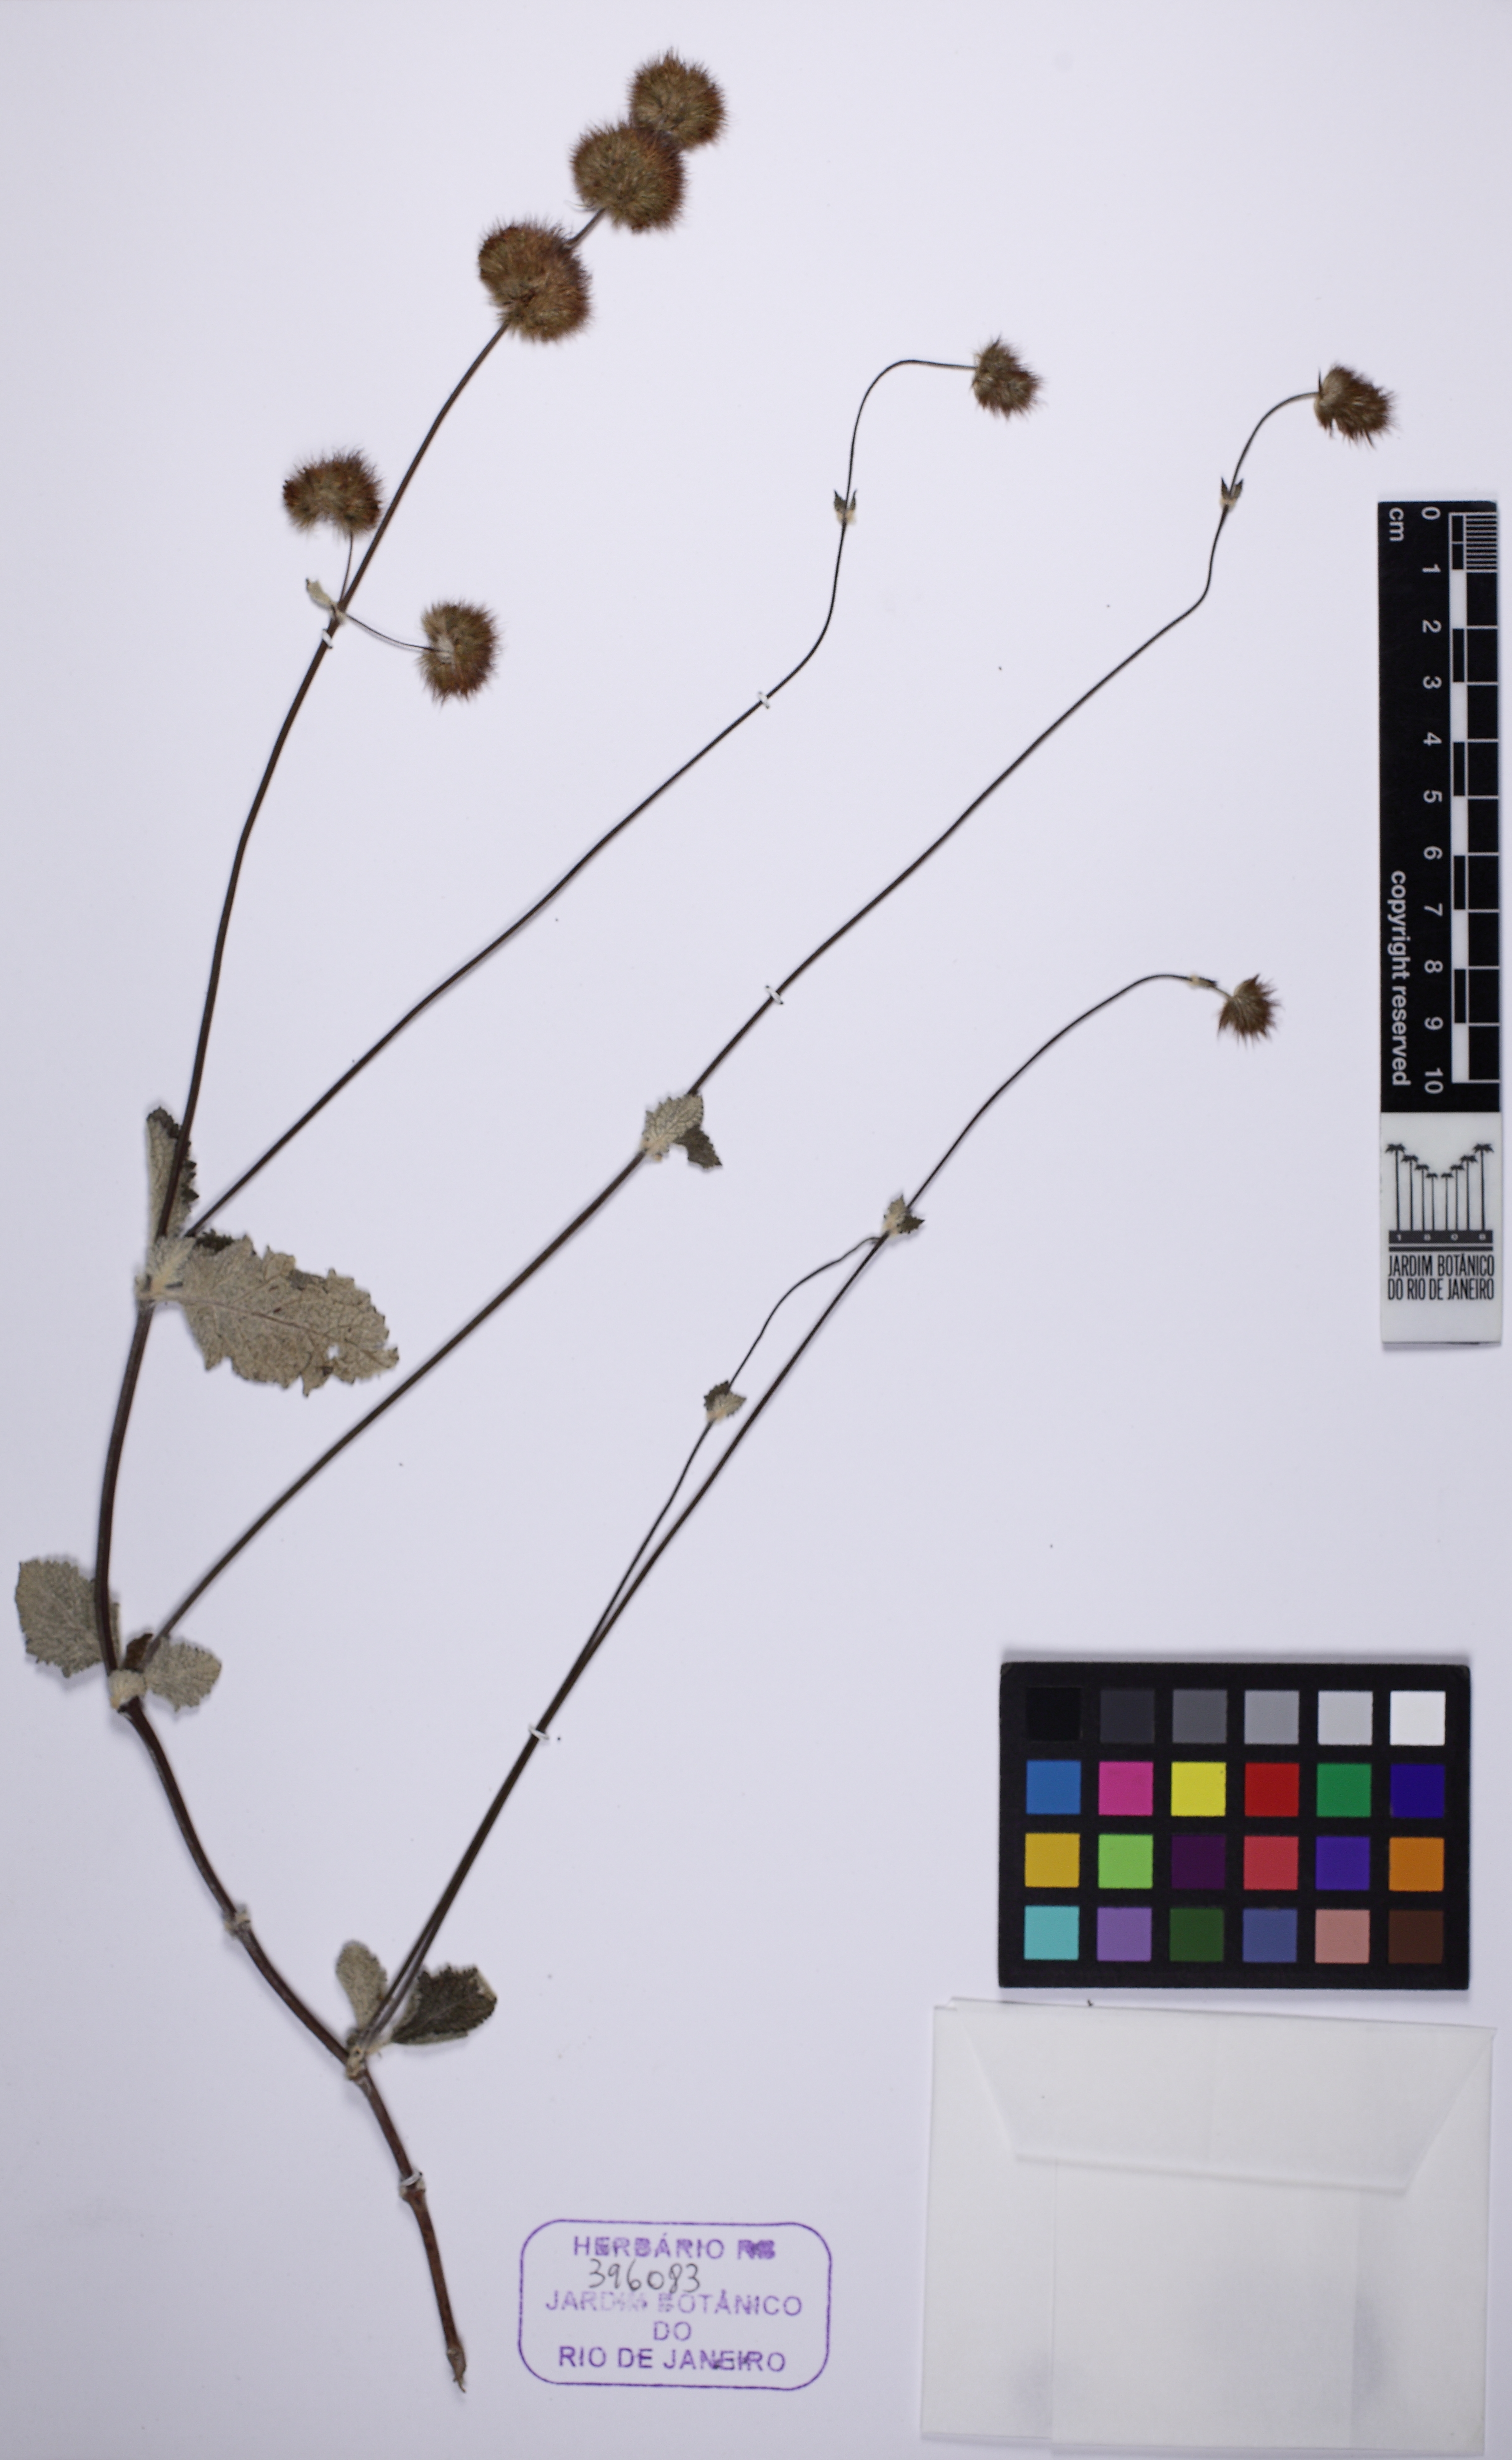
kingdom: Plantae
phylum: Tracheophyta
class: Magnoliopsida
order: Lamiales
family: Lamiaceae
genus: Gymneia
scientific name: Gymneia platanifolia
